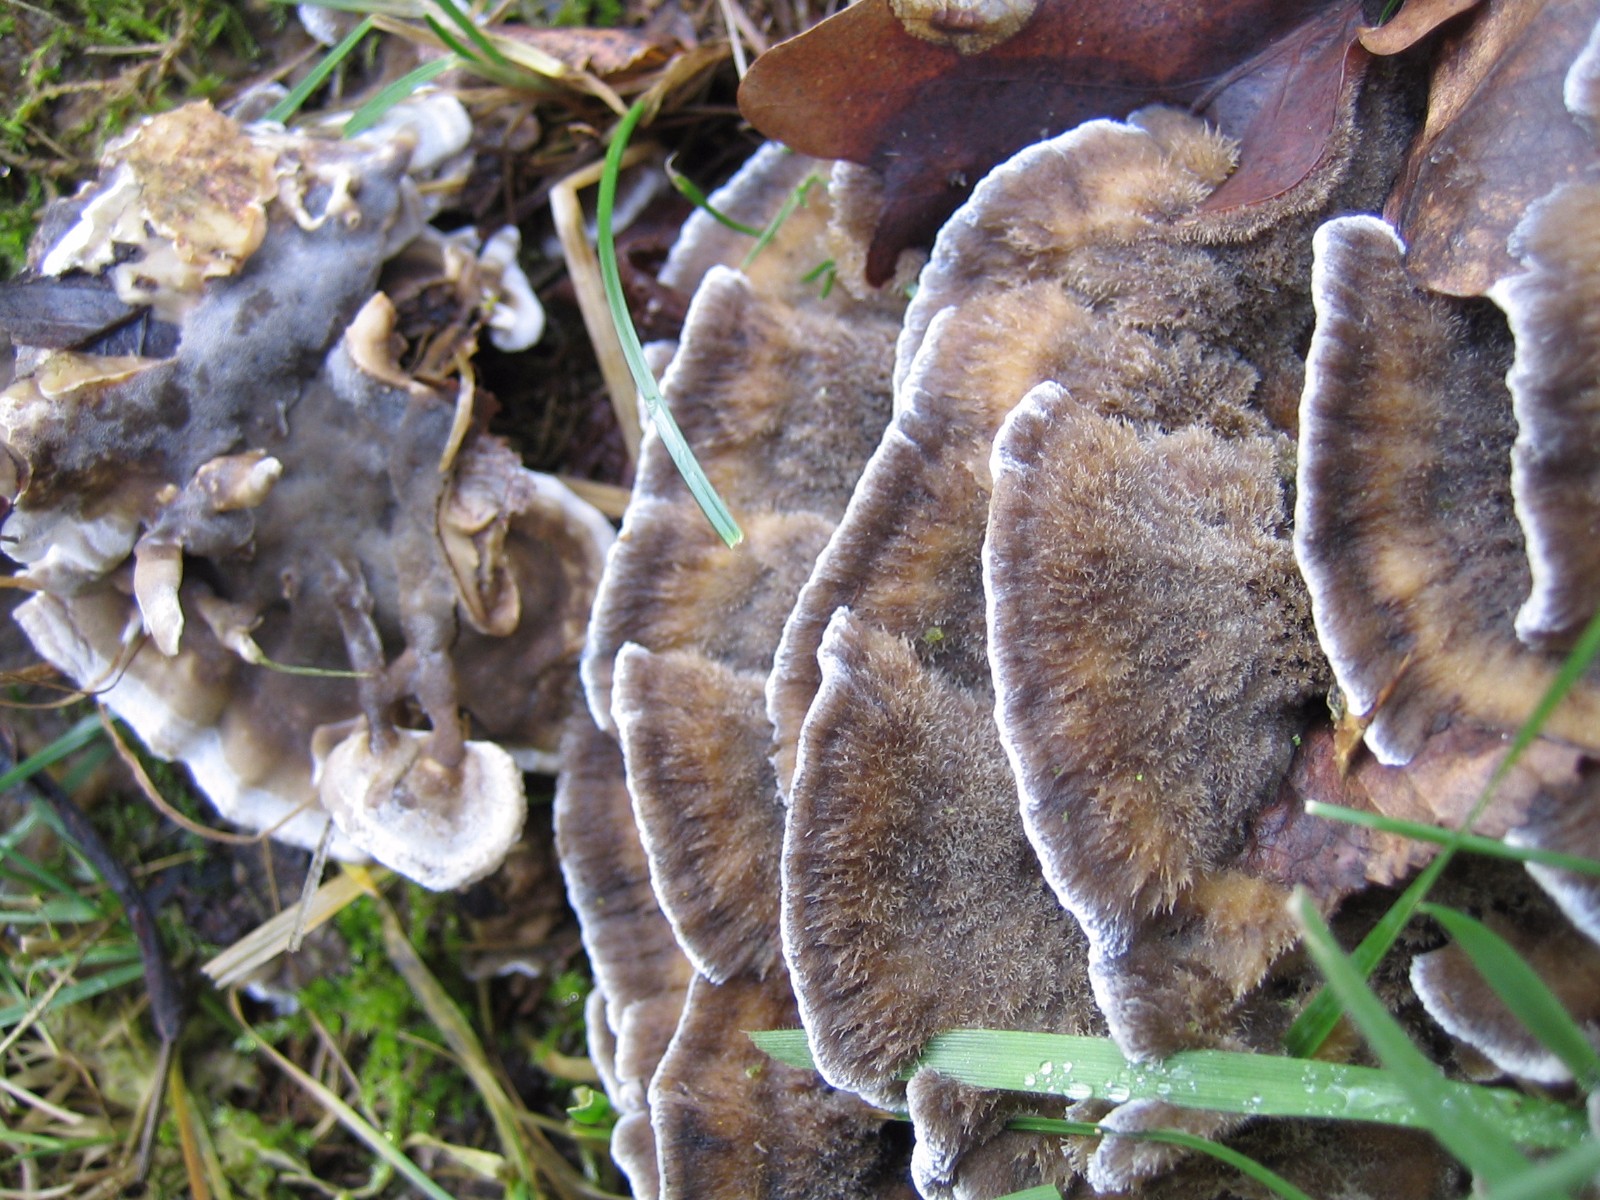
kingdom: Fungi
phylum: Basidiomycota
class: Agaricomycetes
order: Polyporales
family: Phanerochaetaceae
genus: Bjerkandera
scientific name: Bjerkandera adusta
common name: sveden sodporesvamp
